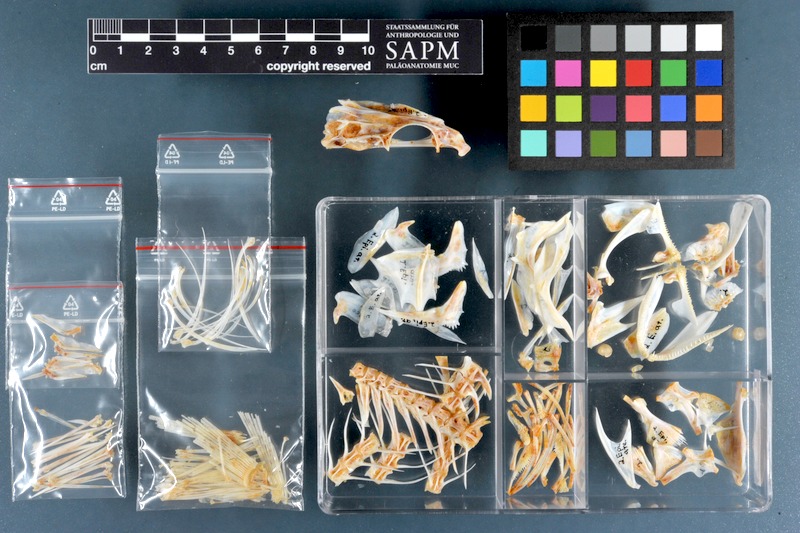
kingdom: Animalia
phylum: Chordata
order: Perciformes
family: Serranidae
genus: Epinephelus
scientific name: Epinephelus areolatus
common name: Areolate grouper
